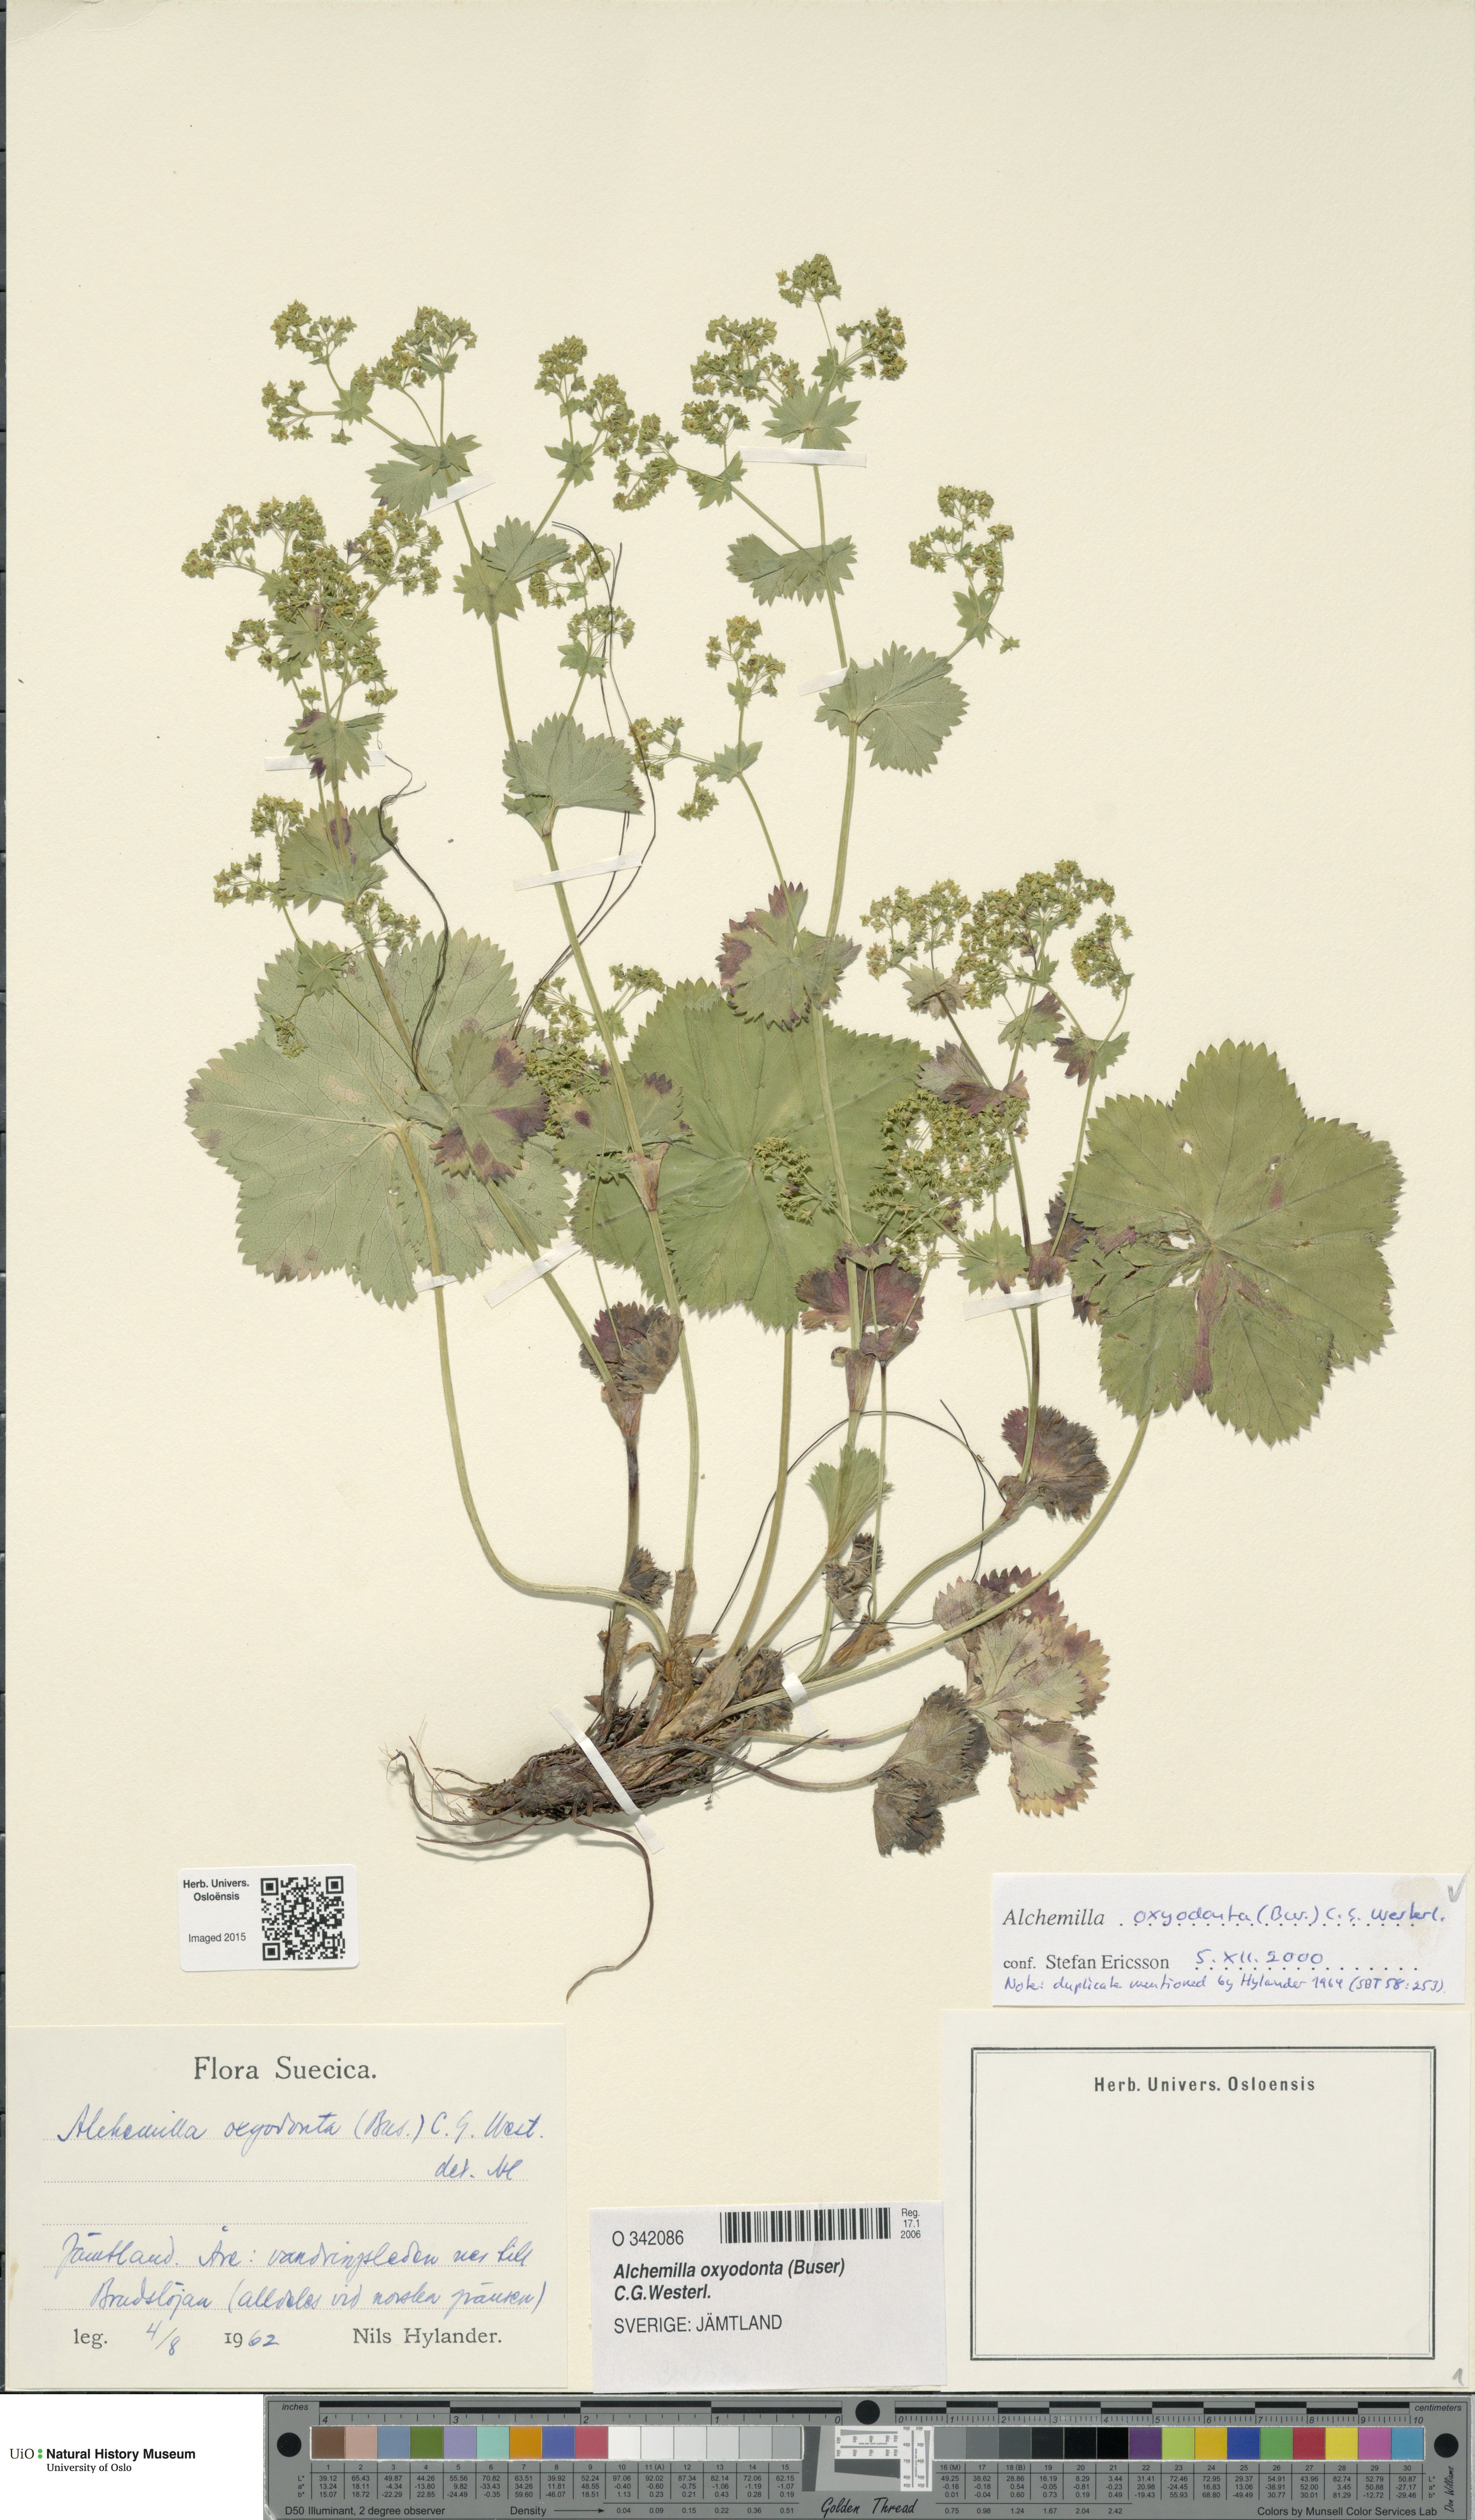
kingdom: Plantae
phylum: Tracheophyta
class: Magnoliopsida
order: Rosales
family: Rosaceae
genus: Alchemilla
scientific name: Alchemilla oxyodonta
